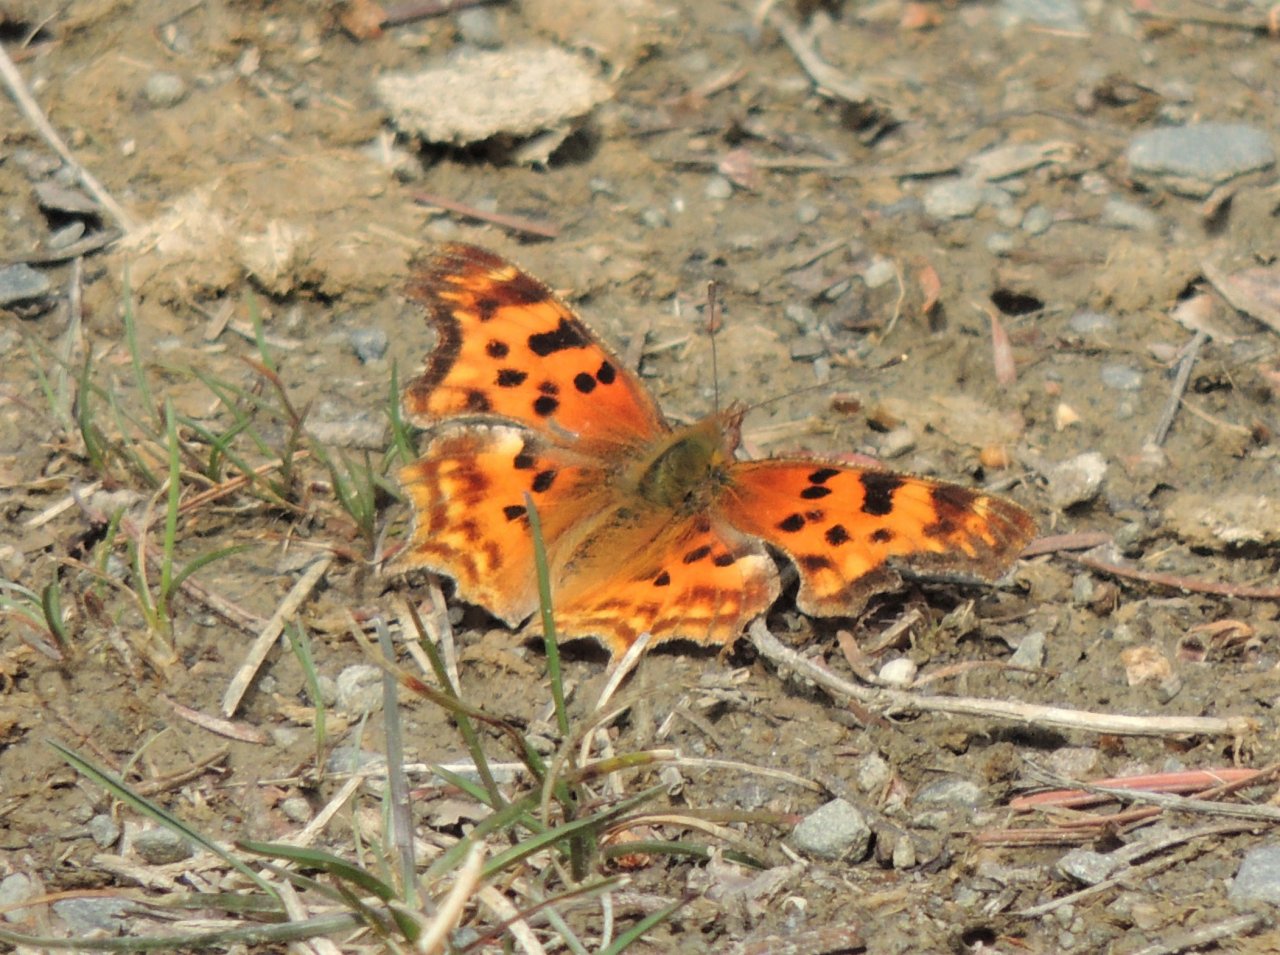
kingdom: Animalia
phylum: Arthropoda
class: Insecta
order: Lepidoptera
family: Nymphalidae
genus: Polygonia
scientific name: Polygonia satyrus
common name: Satyr Comma
